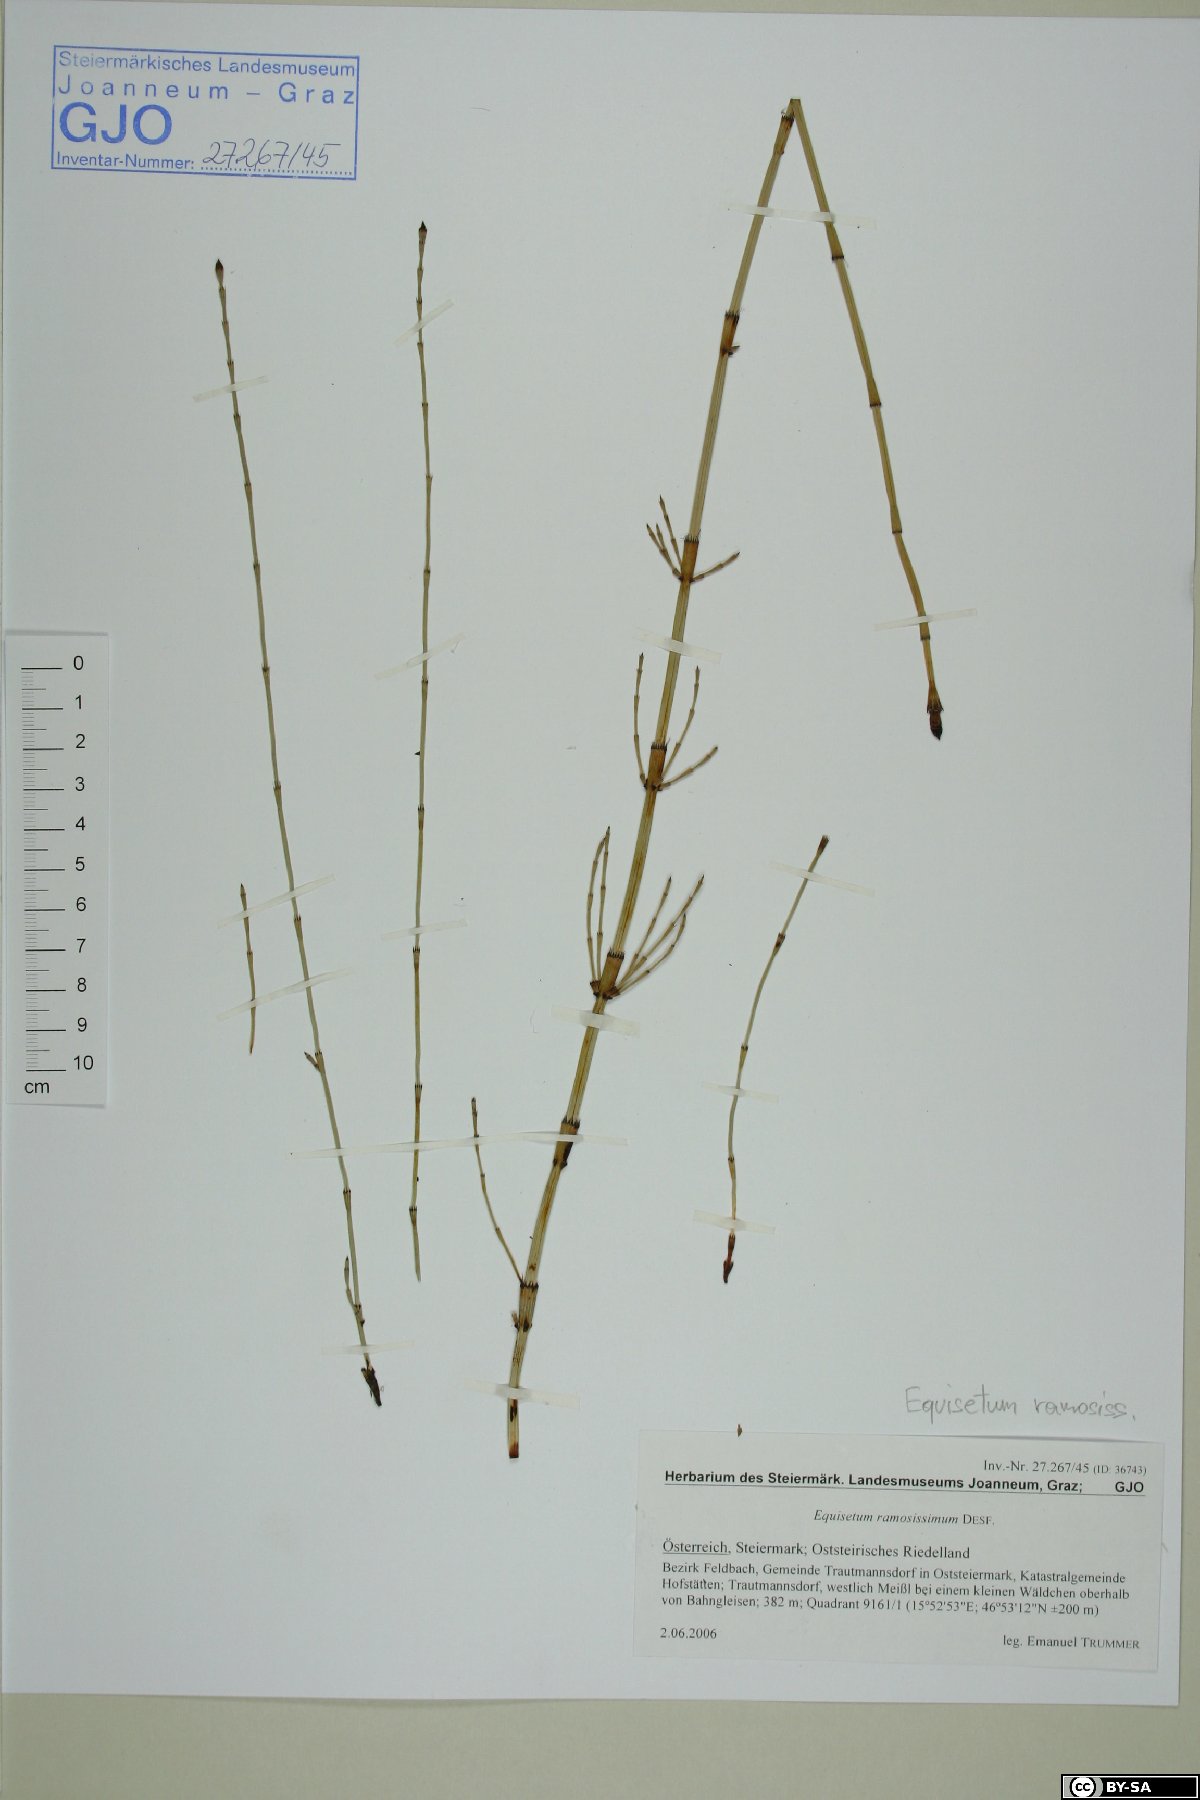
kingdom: Plantae
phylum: Tracheophyta
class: Polypodiopsida
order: Equisetales
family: Equisetaceae
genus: Equisetum
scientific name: Equisetum ramosissimum
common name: Branched horsetail
